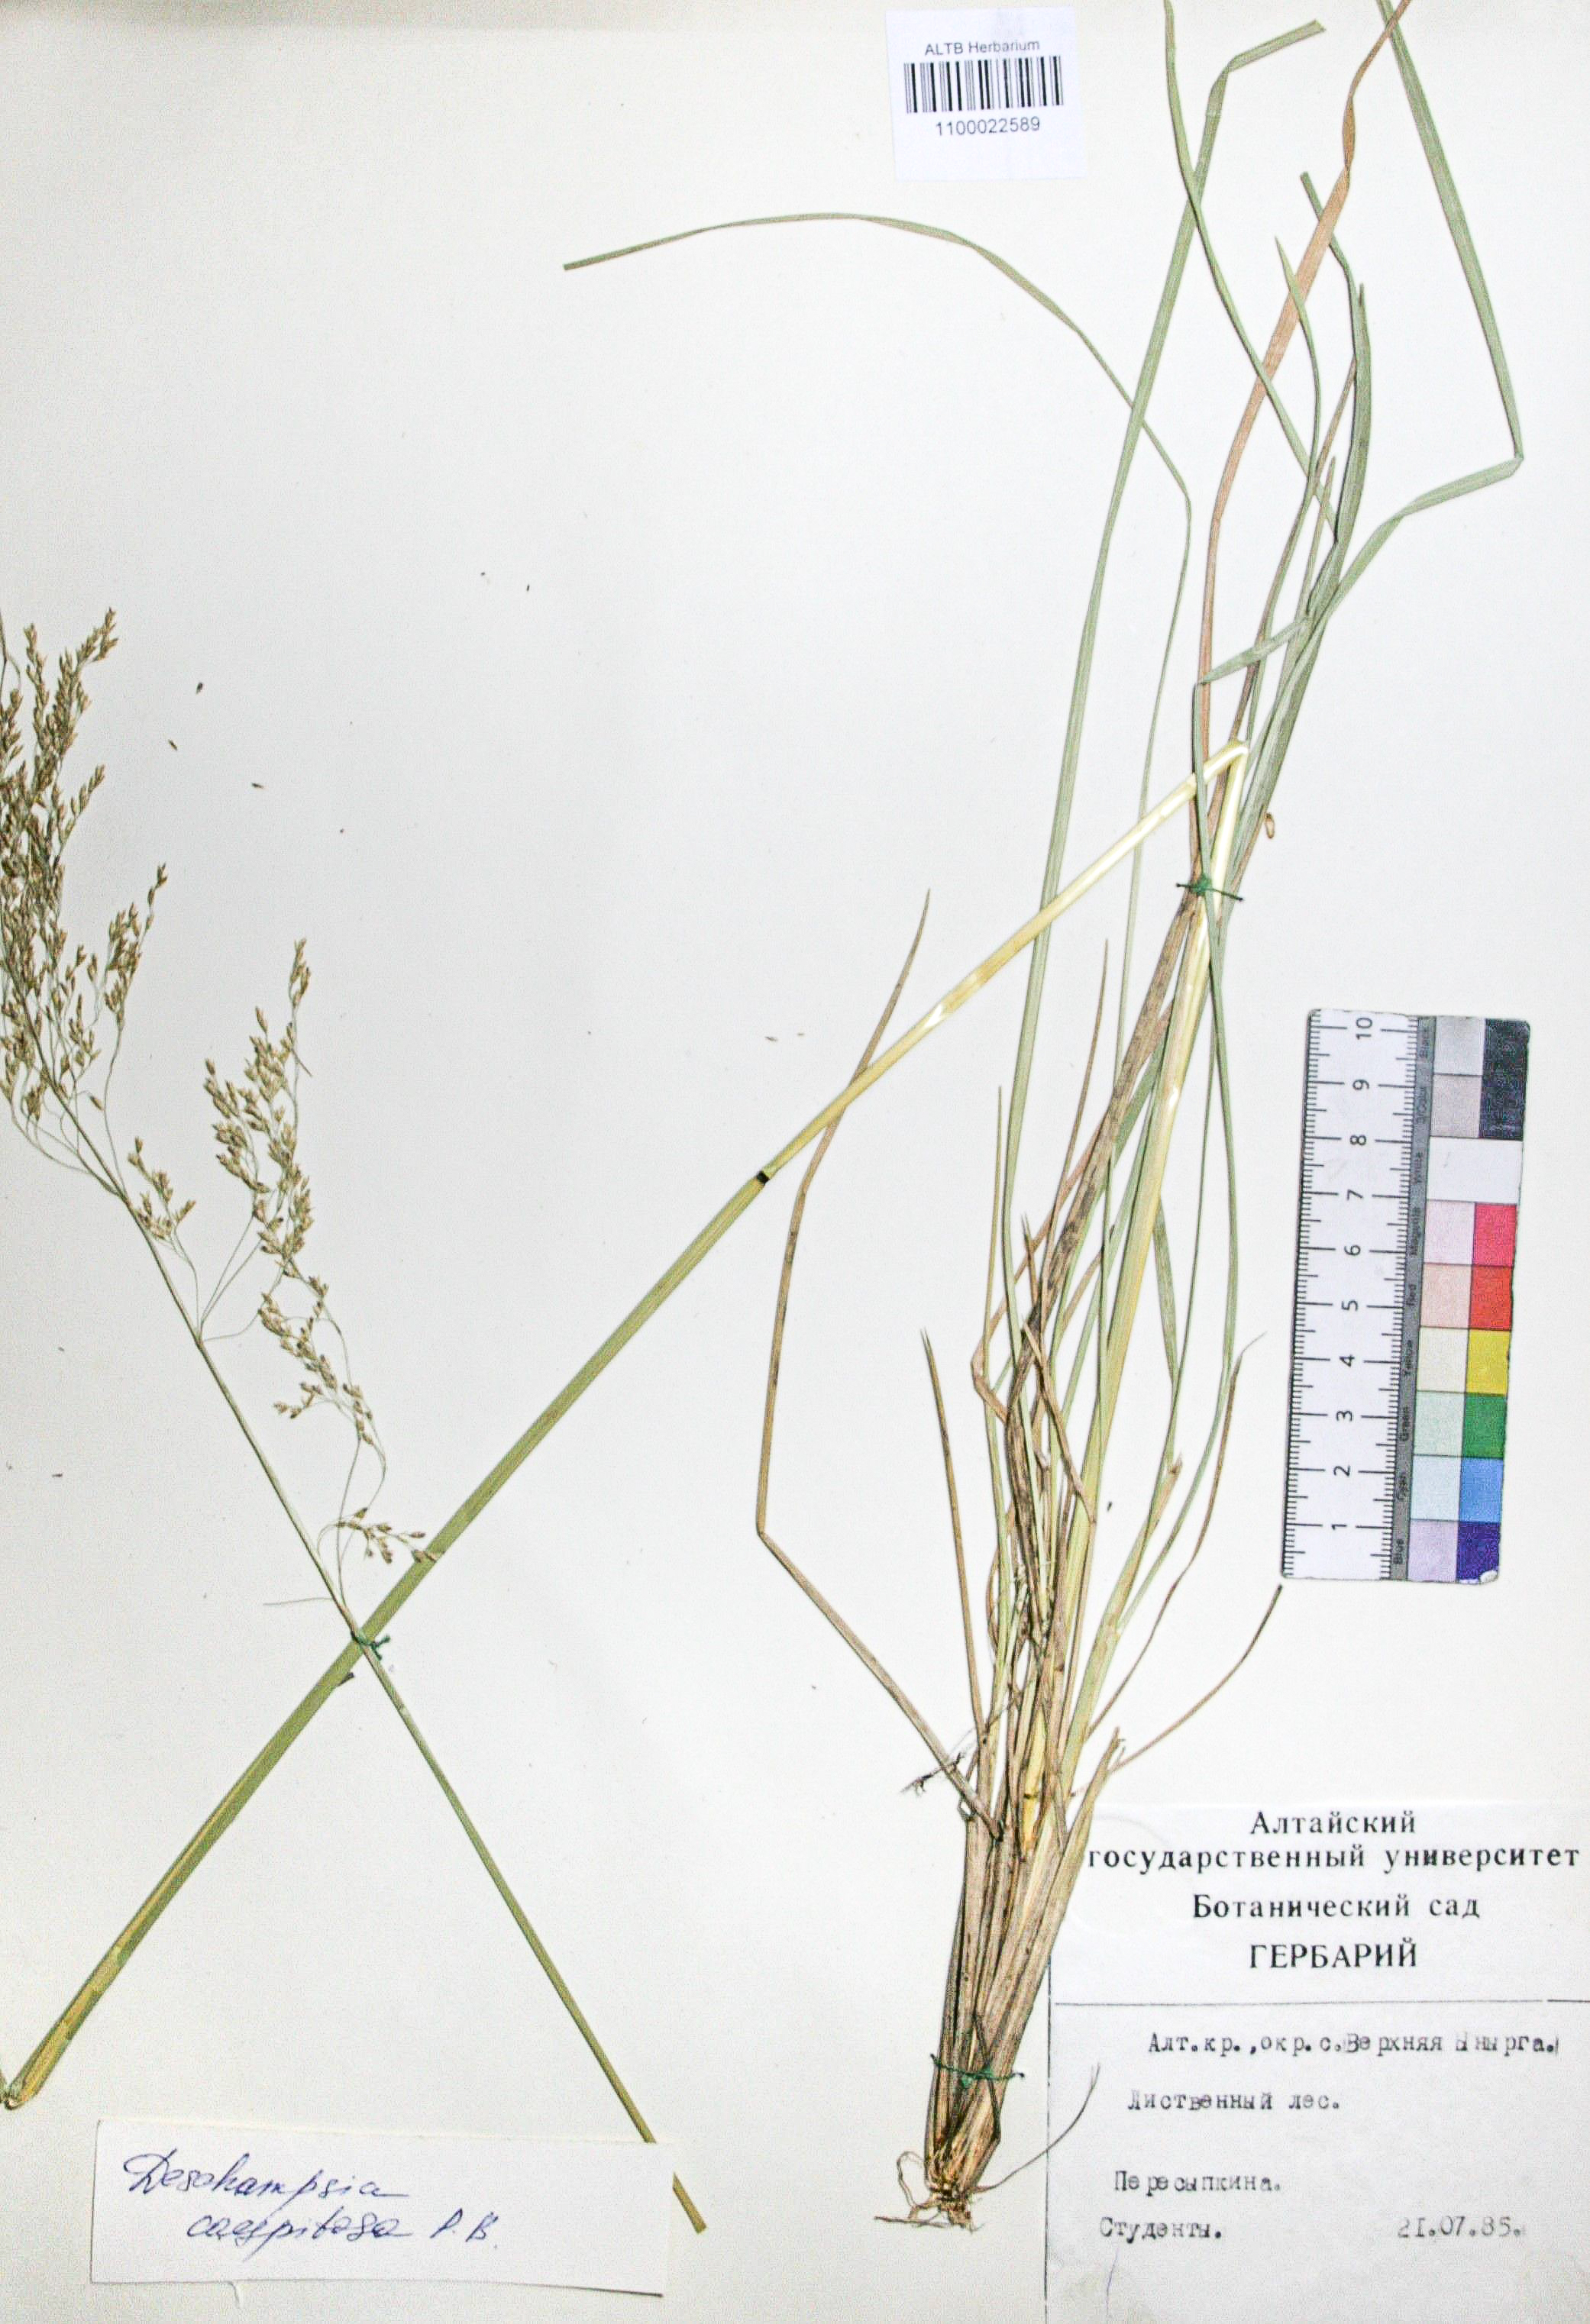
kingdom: Plantae
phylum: Tracheophyta
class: Liliopsida
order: Poales
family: Poaceae
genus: Deschampsia
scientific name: Deschampsia cespitosa
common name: Tufted hair-grass
